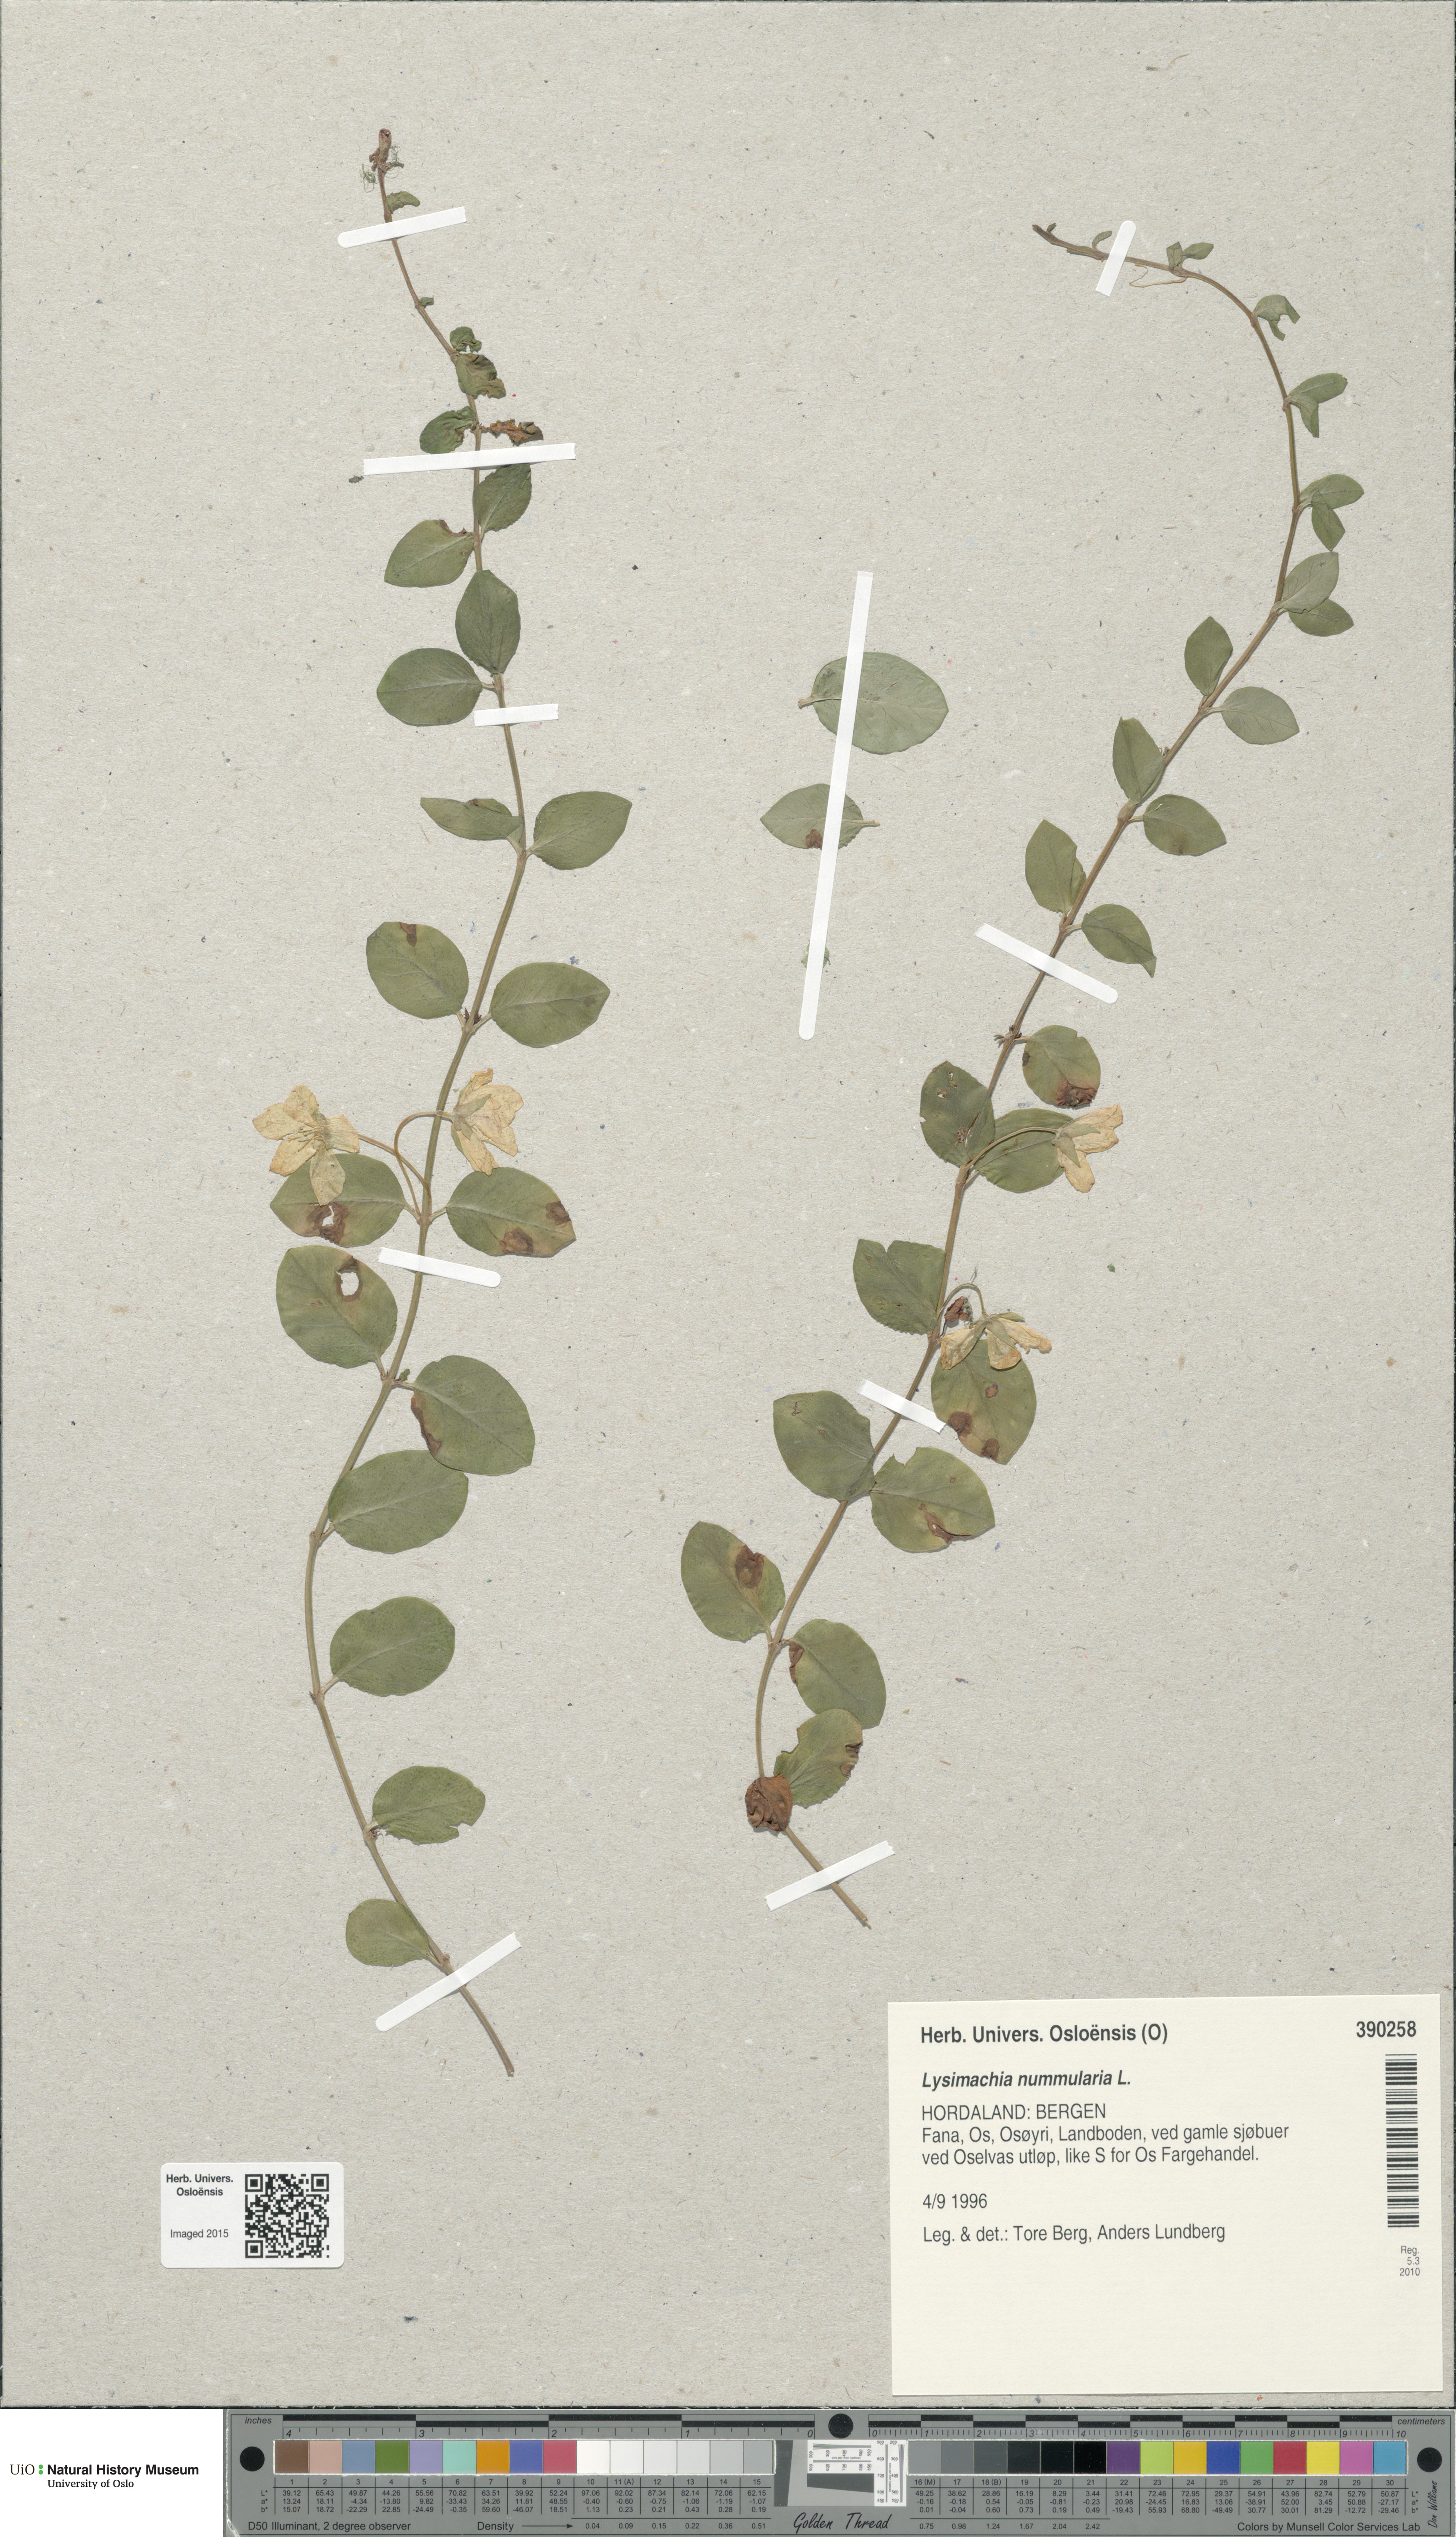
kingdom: Plantae
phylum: Tracheophyta
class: Magnoliopsida
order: Ericales
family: Primulaceae
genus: Lysimachia
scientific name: Lysimachia nummularia
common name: Moneywort
